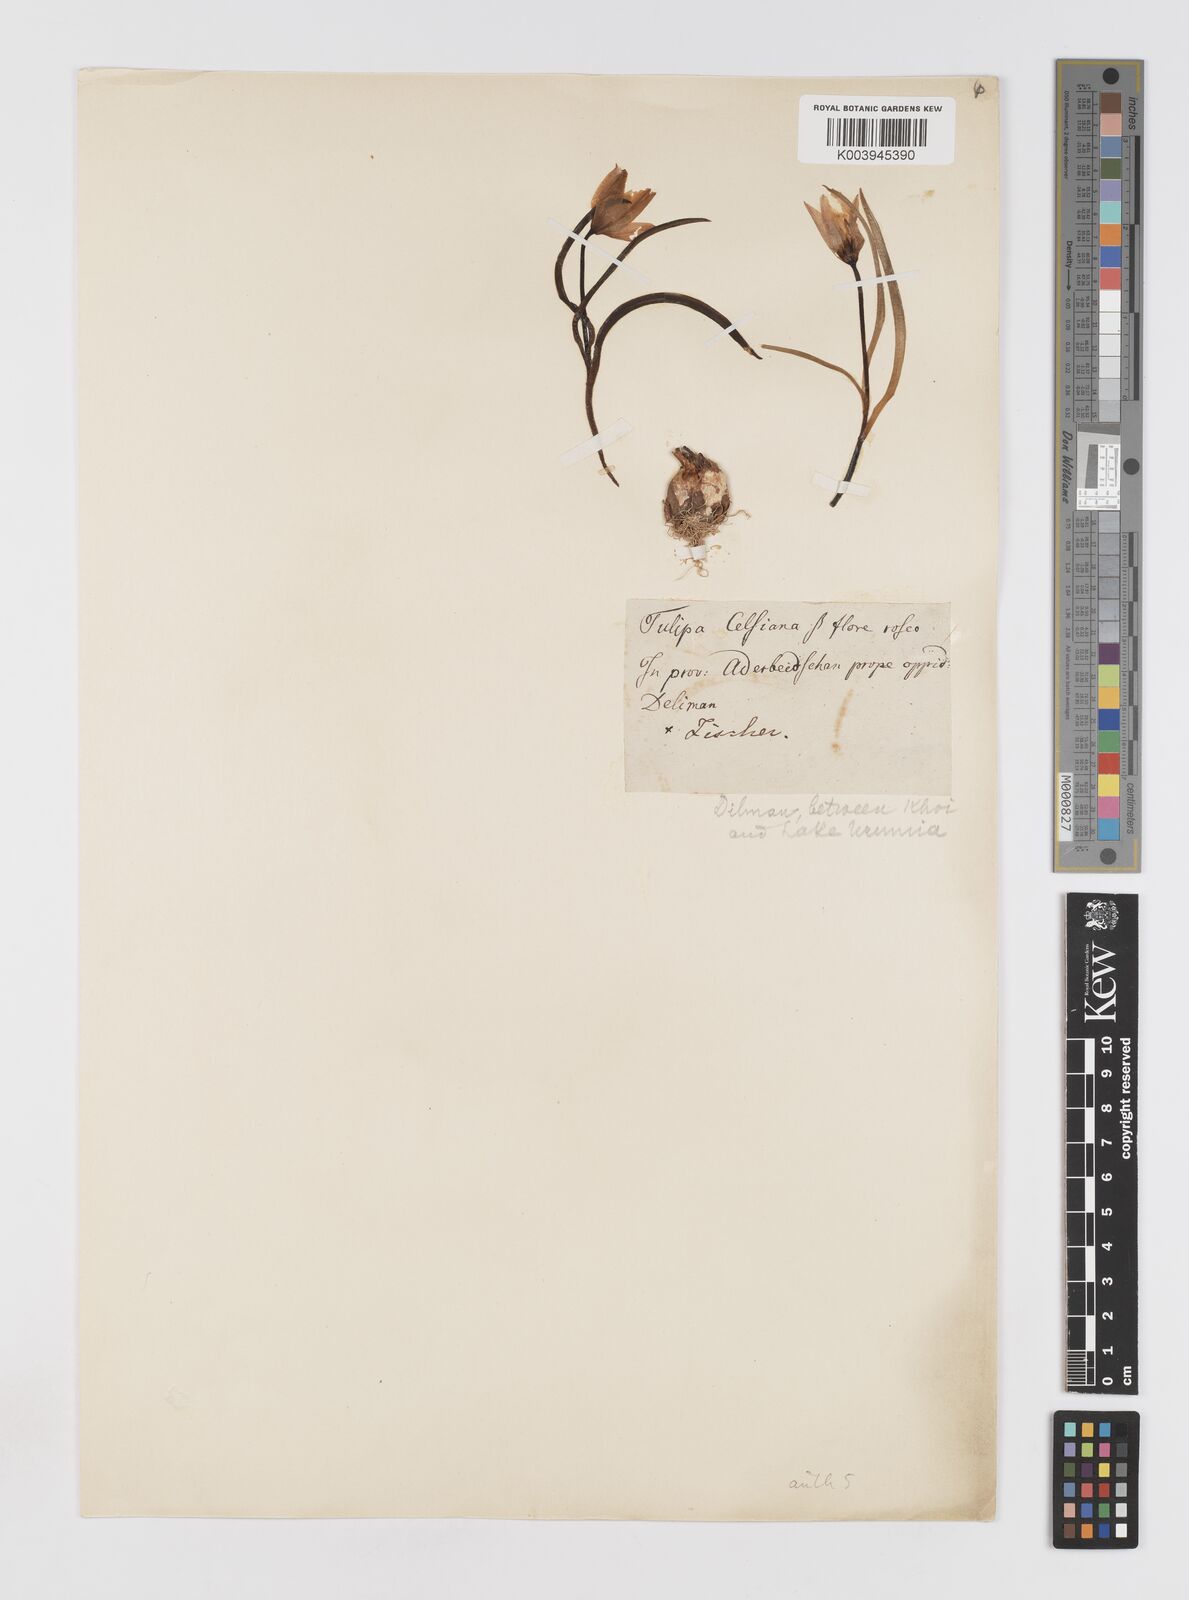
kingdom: Plantae
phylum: Tracheophyta
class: Liliopsida
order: Liliales
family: Liliaceae
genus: Tulipa
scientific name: Tulipa humilis
